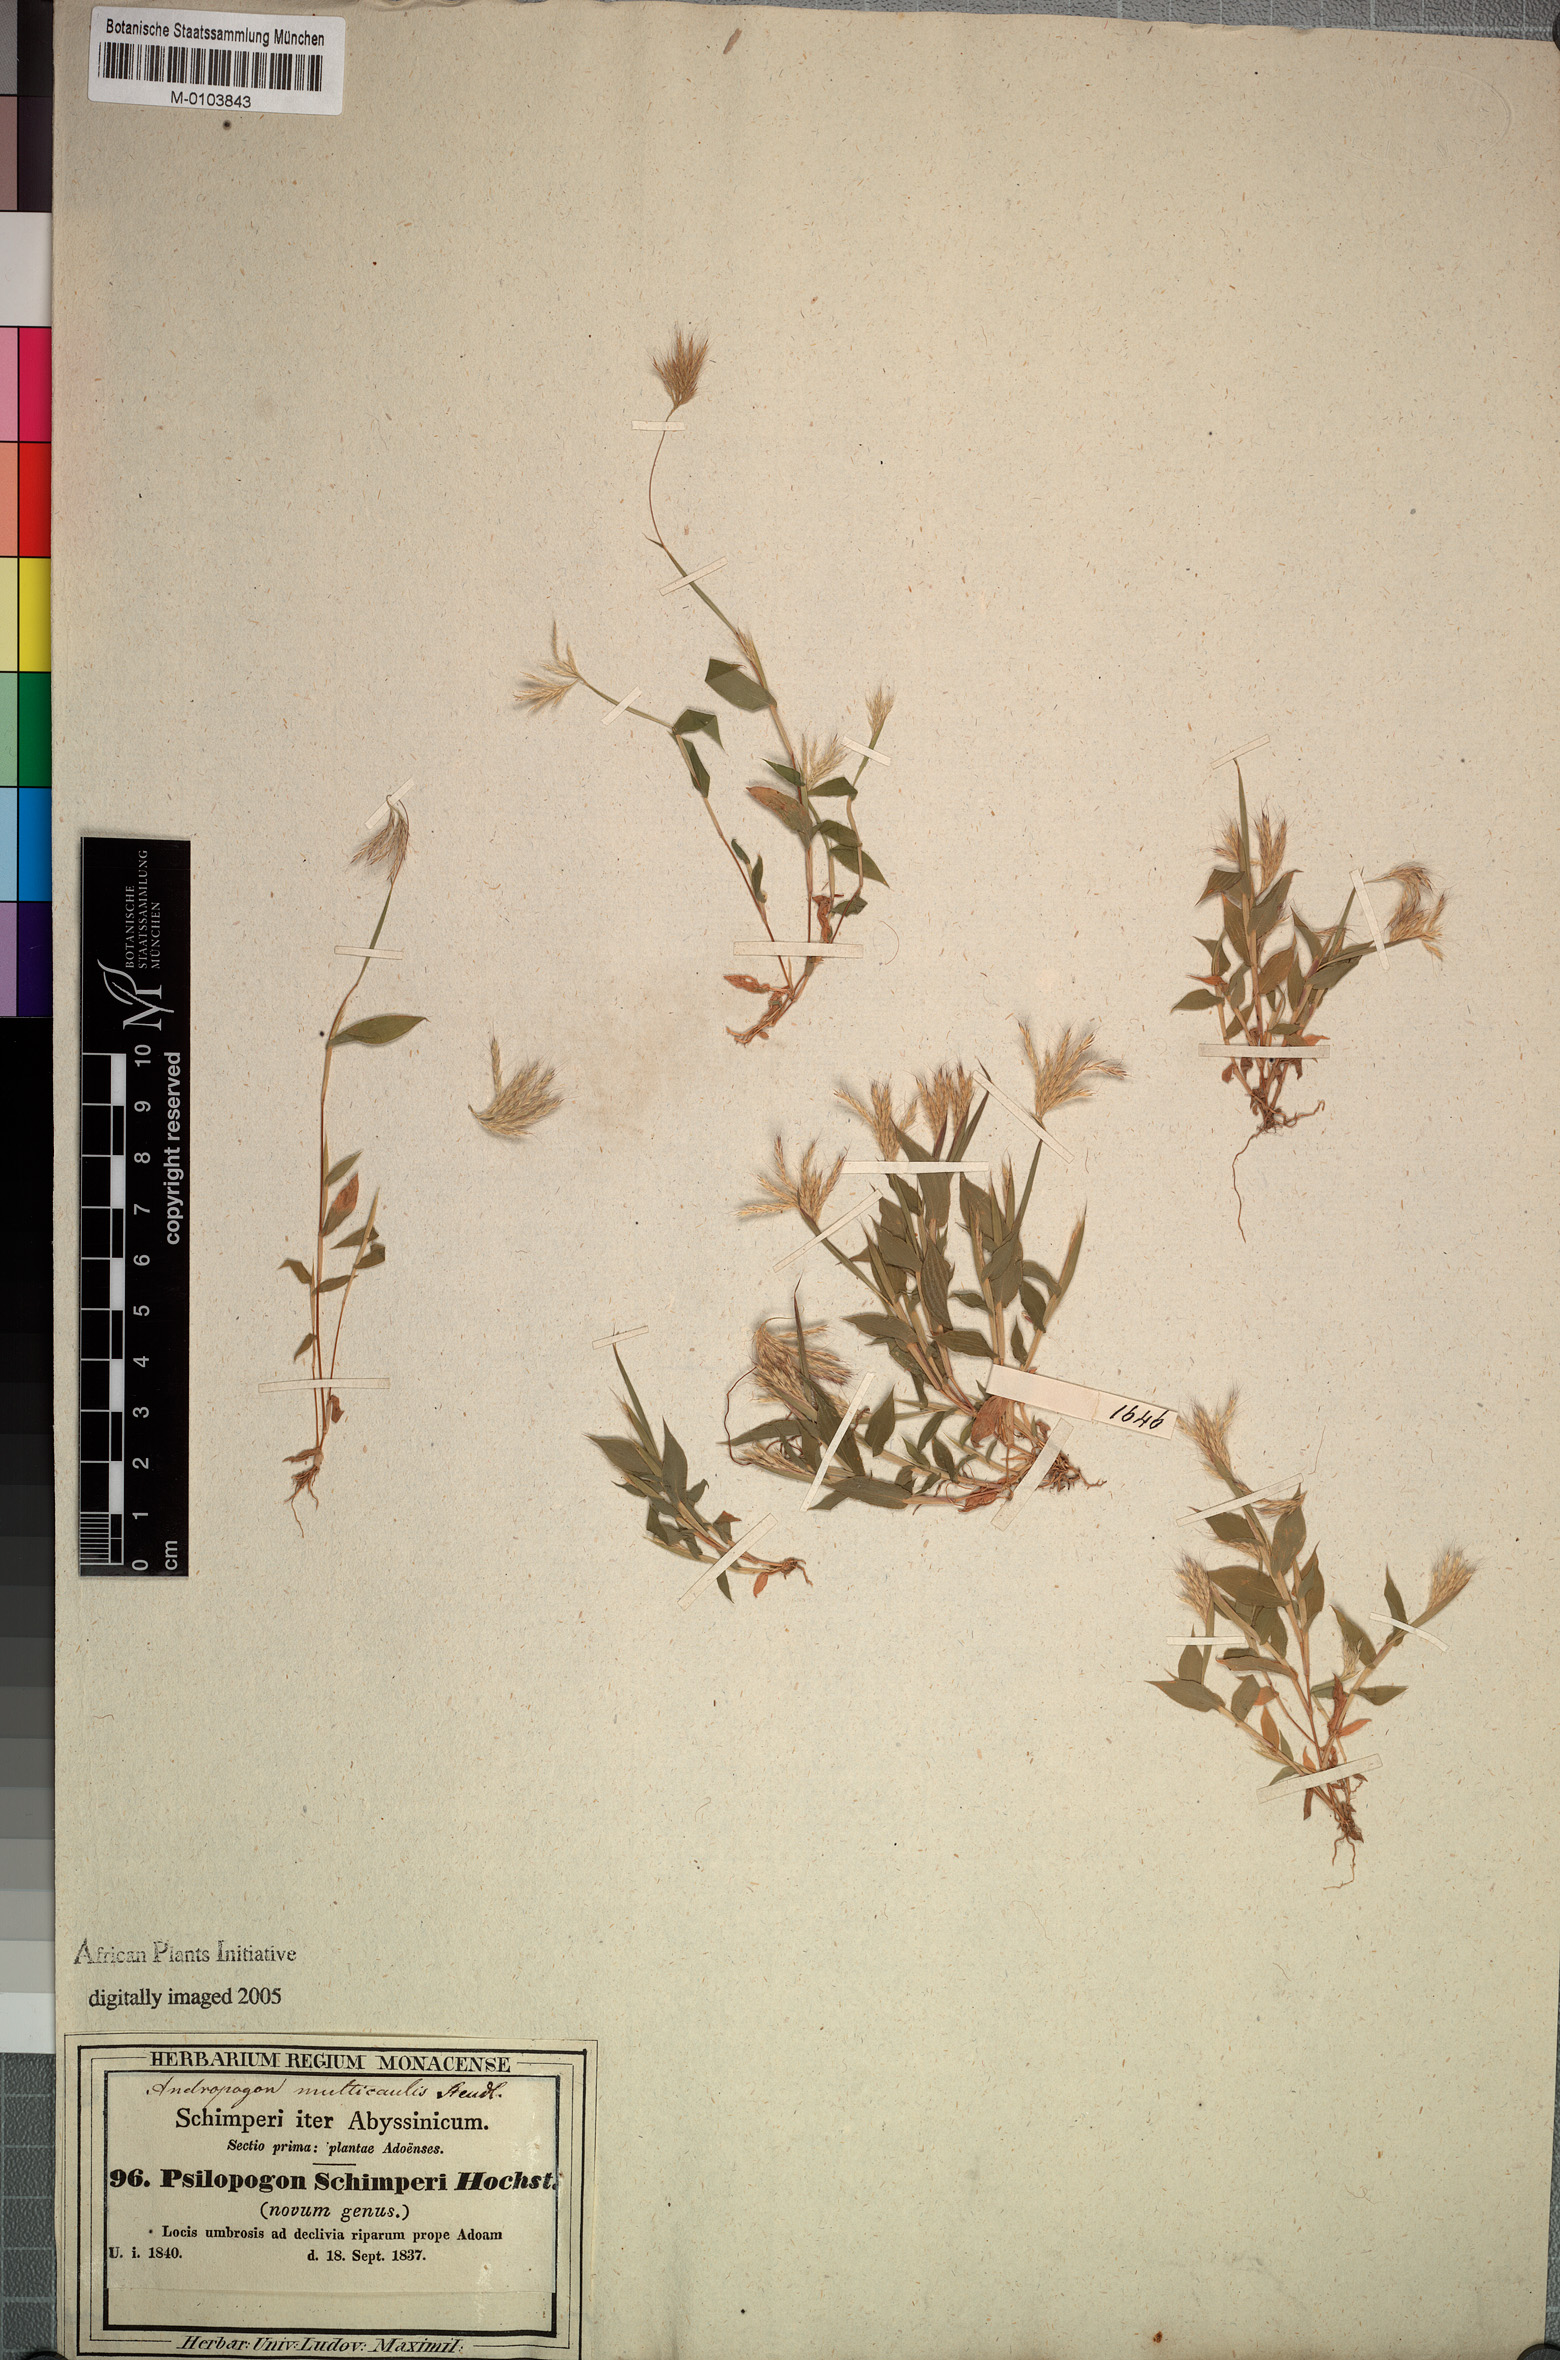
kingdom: Plantae
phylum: Tracheophyta
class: Liliopsida
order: Poales
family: Poaceae
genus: Arthraxon
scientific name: Arthraxon lancifolius
